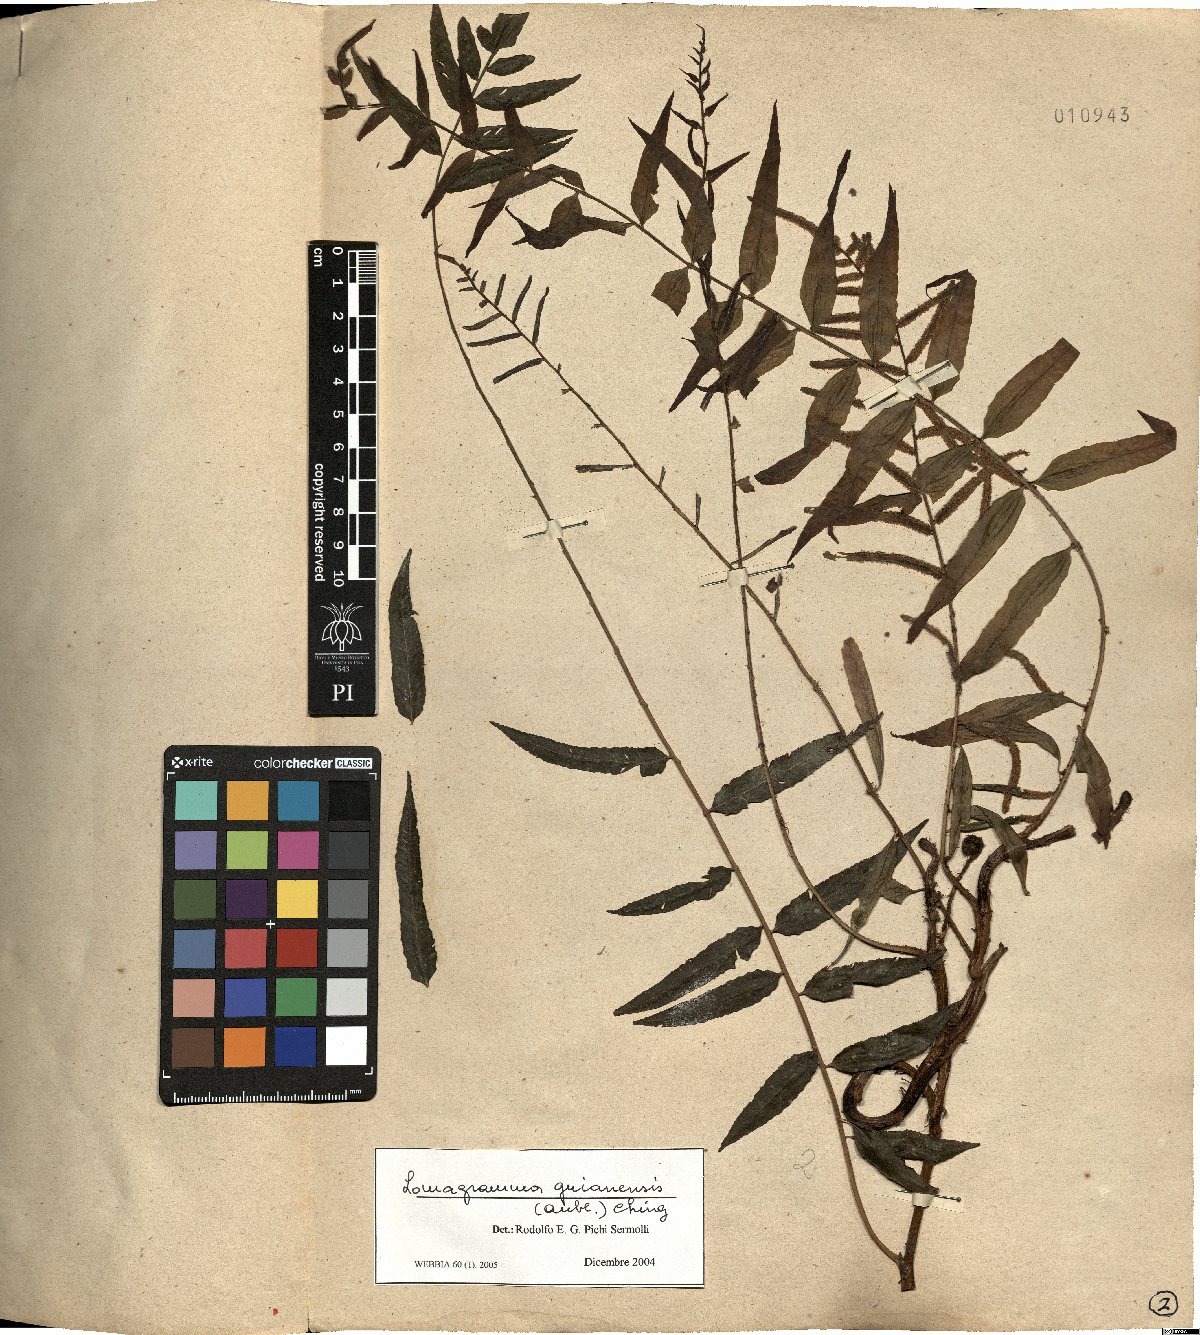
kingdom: Plantae
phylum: Tracheophyta
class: Polypodiopsida
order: Polypodiales
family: Dryopteridaceae
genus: Mickelia
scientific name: Mickelia guianensis
